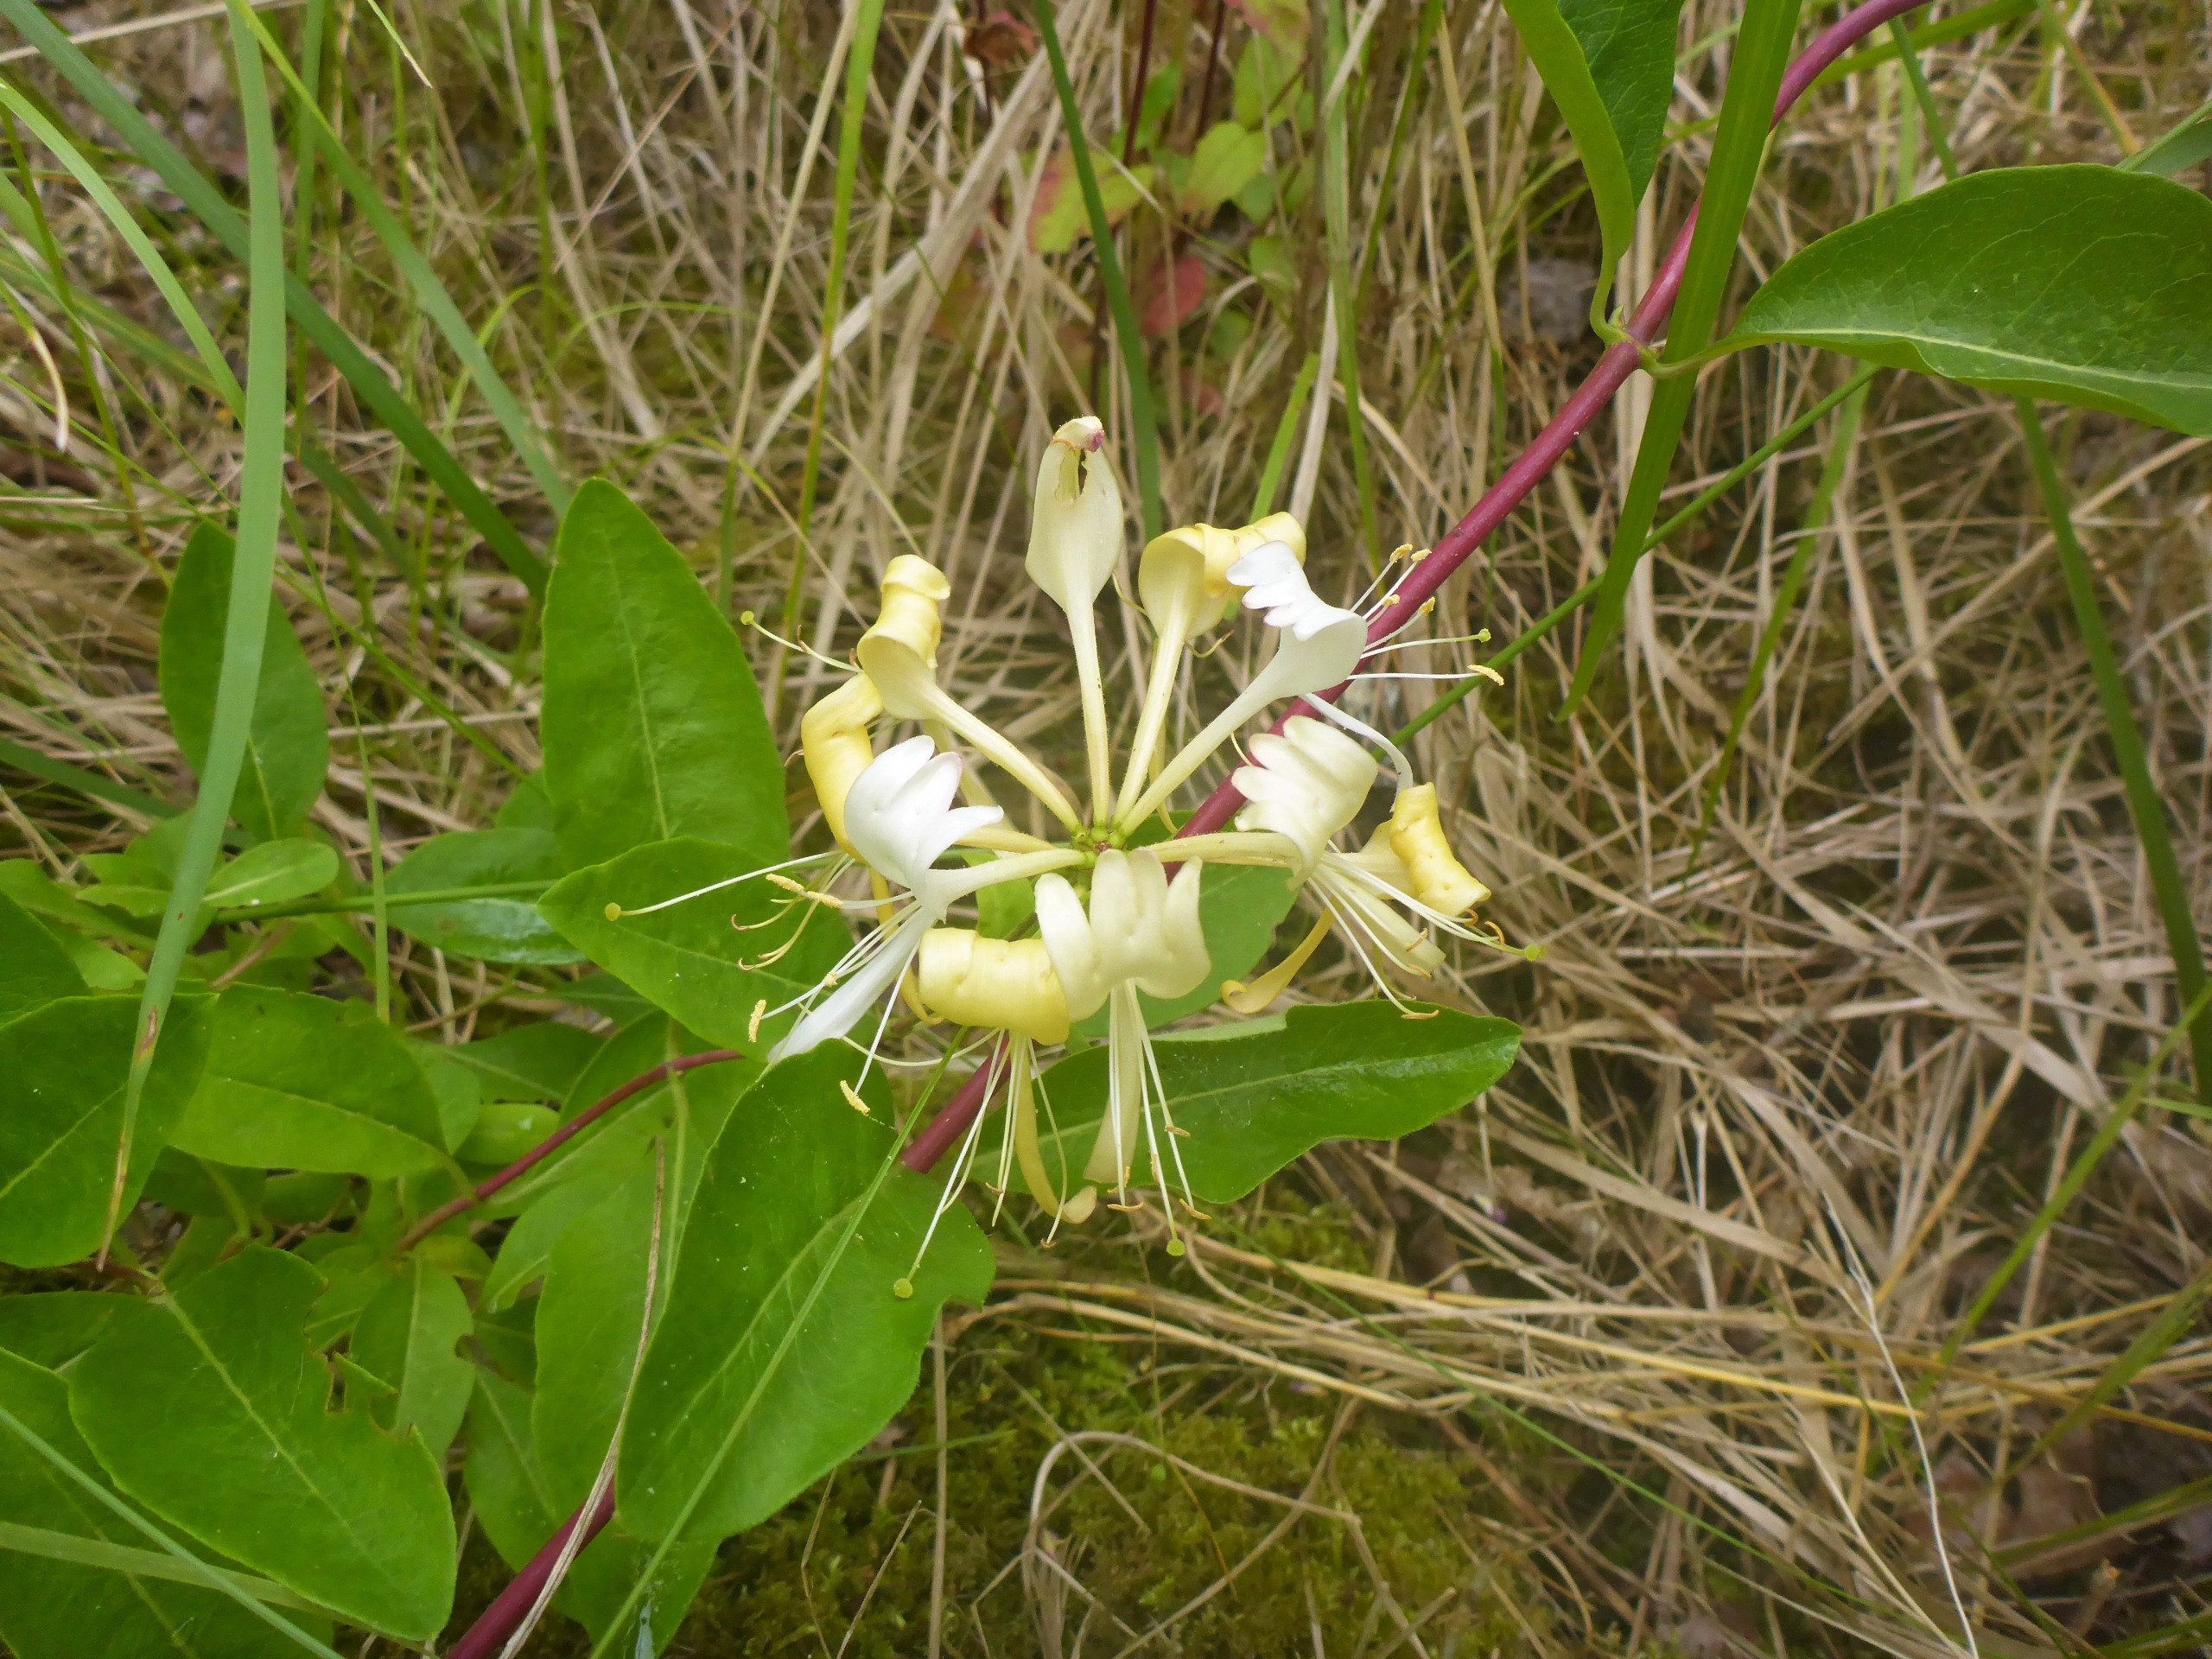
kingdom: Plantae
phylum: Tracheophyta
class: Magnoliopsida
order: Dipsacales
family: Caprifoliaceae
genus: Lonicera
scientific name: Lonicera periclymenum
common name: Almindelig gedeblad
